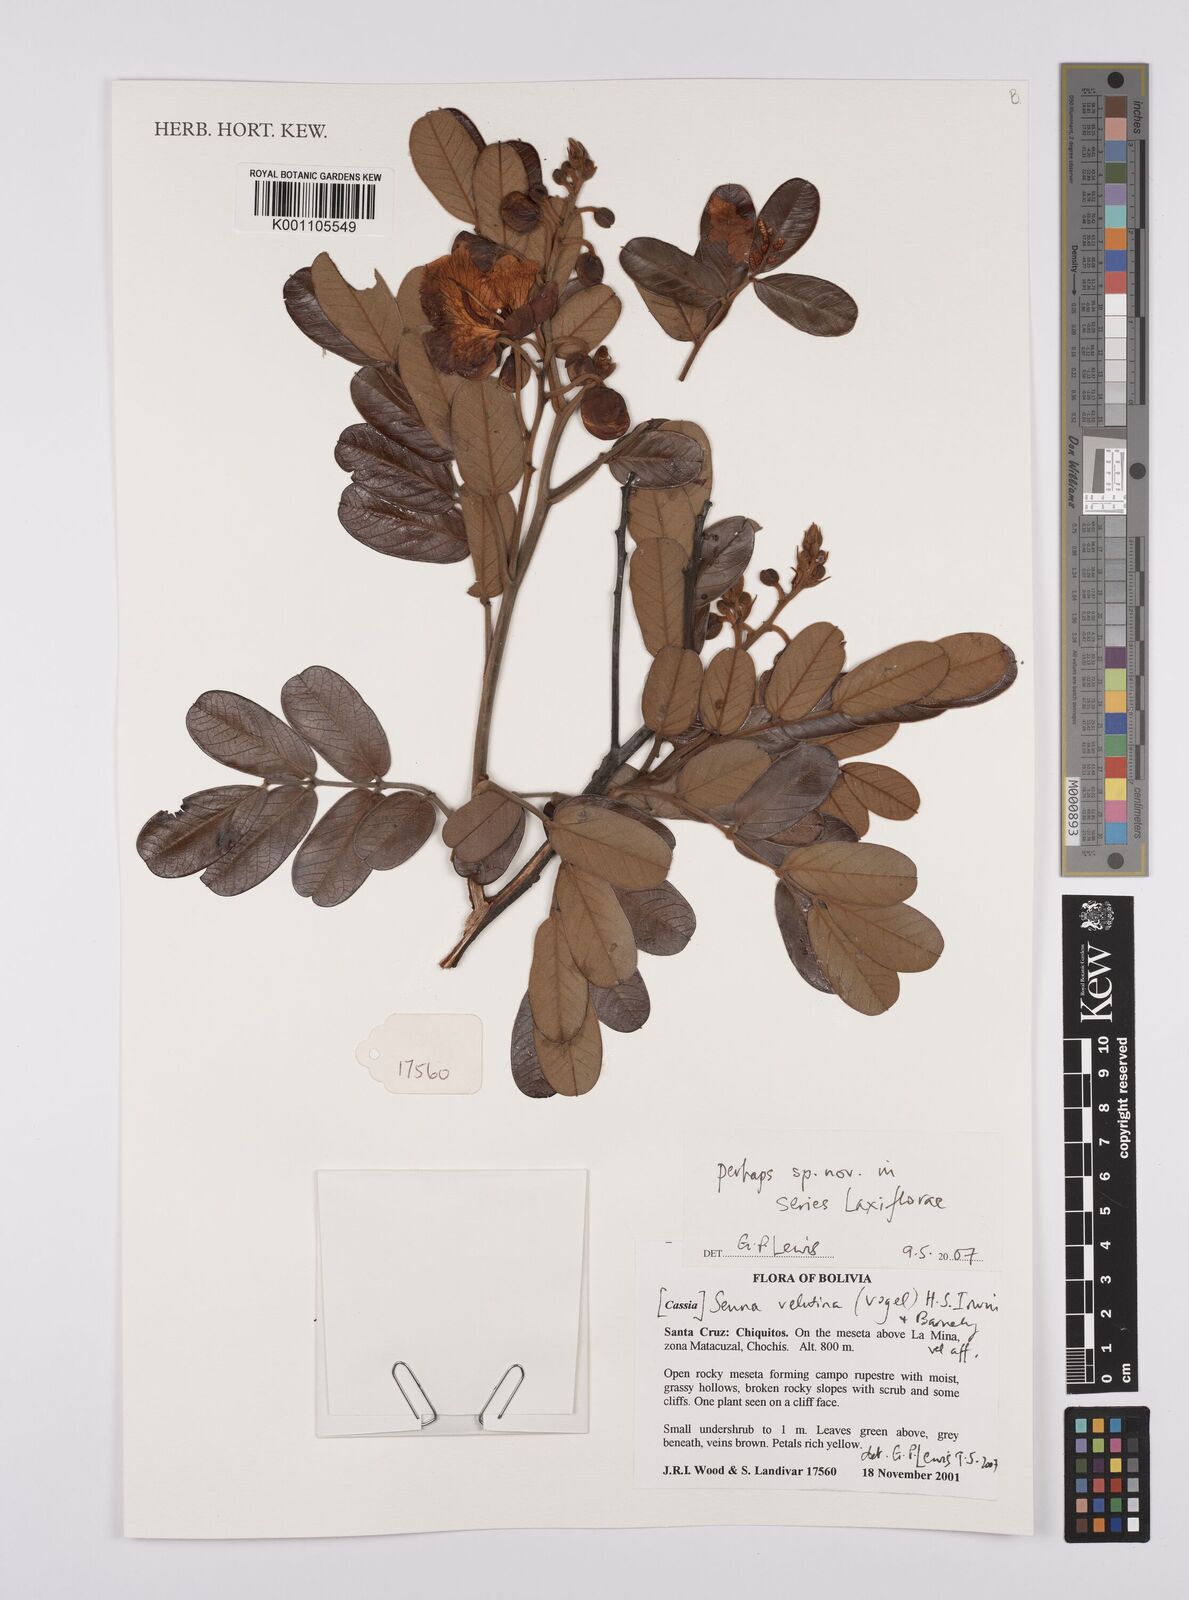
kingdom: Plantae
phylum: Tracheophyta
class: Magnoliopsida
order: Fabales
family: Fabaceae
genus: Senna
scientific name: Senna velutina
